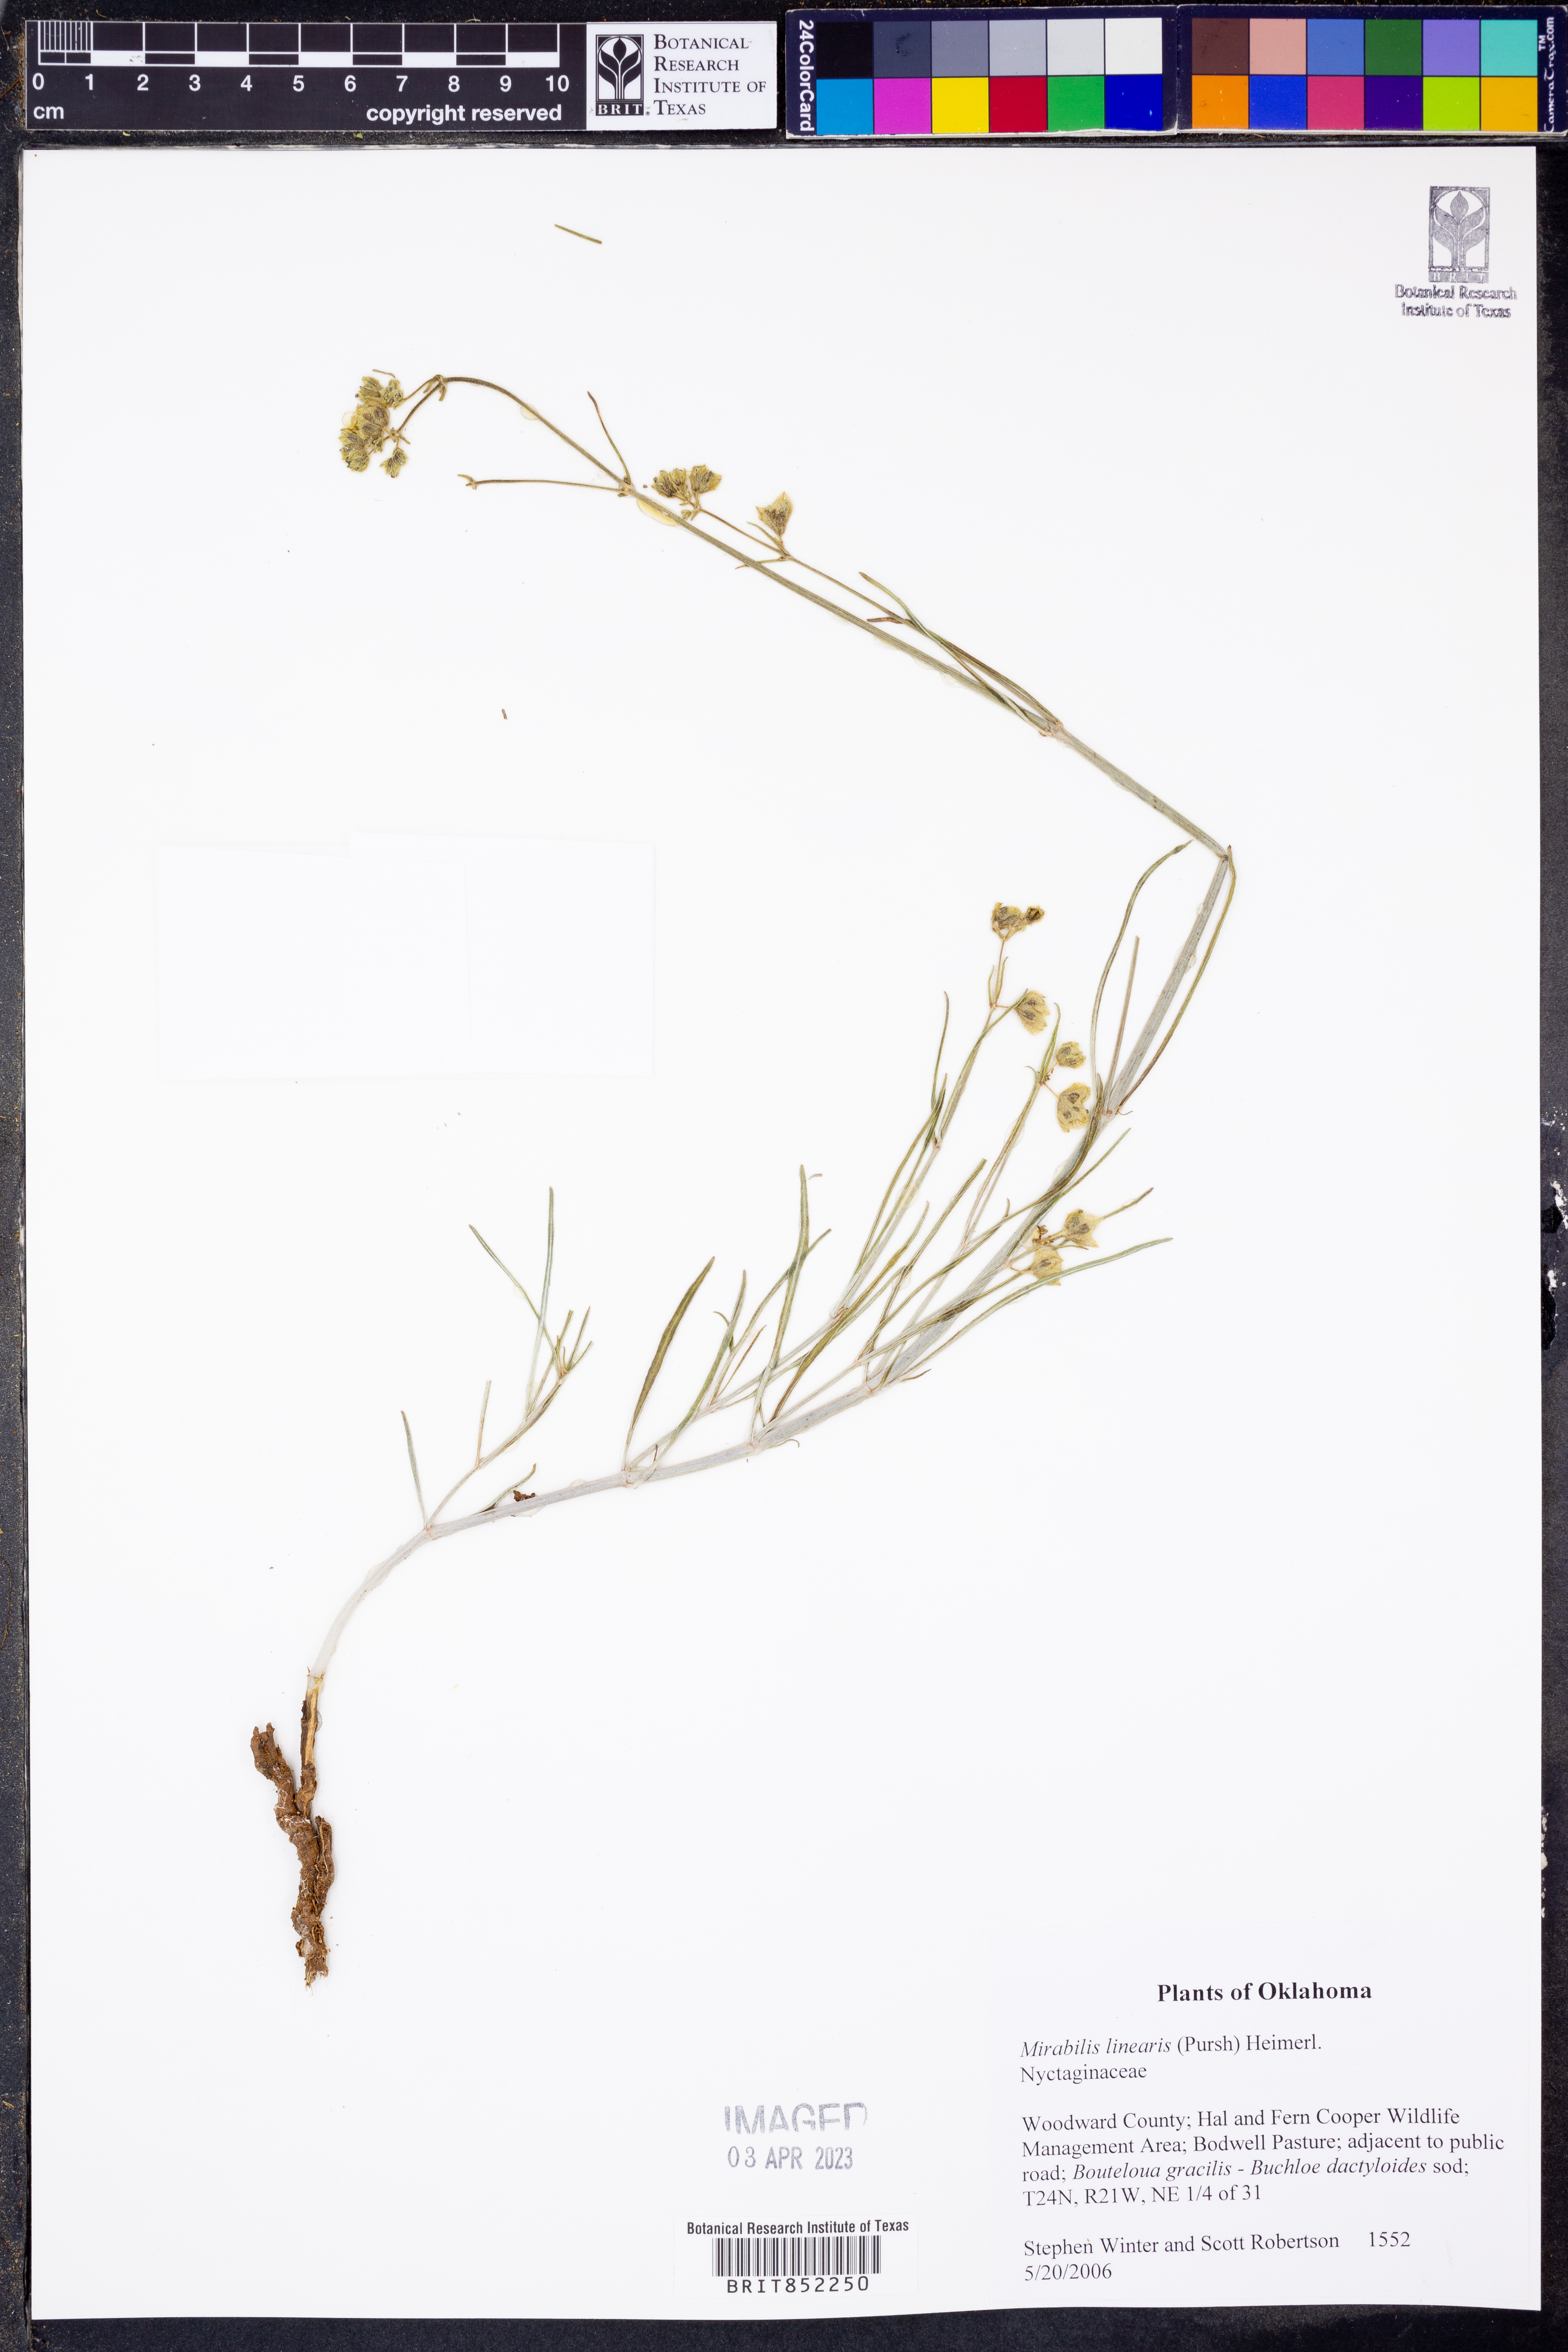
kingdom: Plantae
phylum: Tracheophyta
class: Magnoliopsida
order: Caryophyllales
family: Nyctaginaceae
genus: Mirabilis
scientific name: Mirabilis linearis
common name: Linear-leaved four-o'clock
